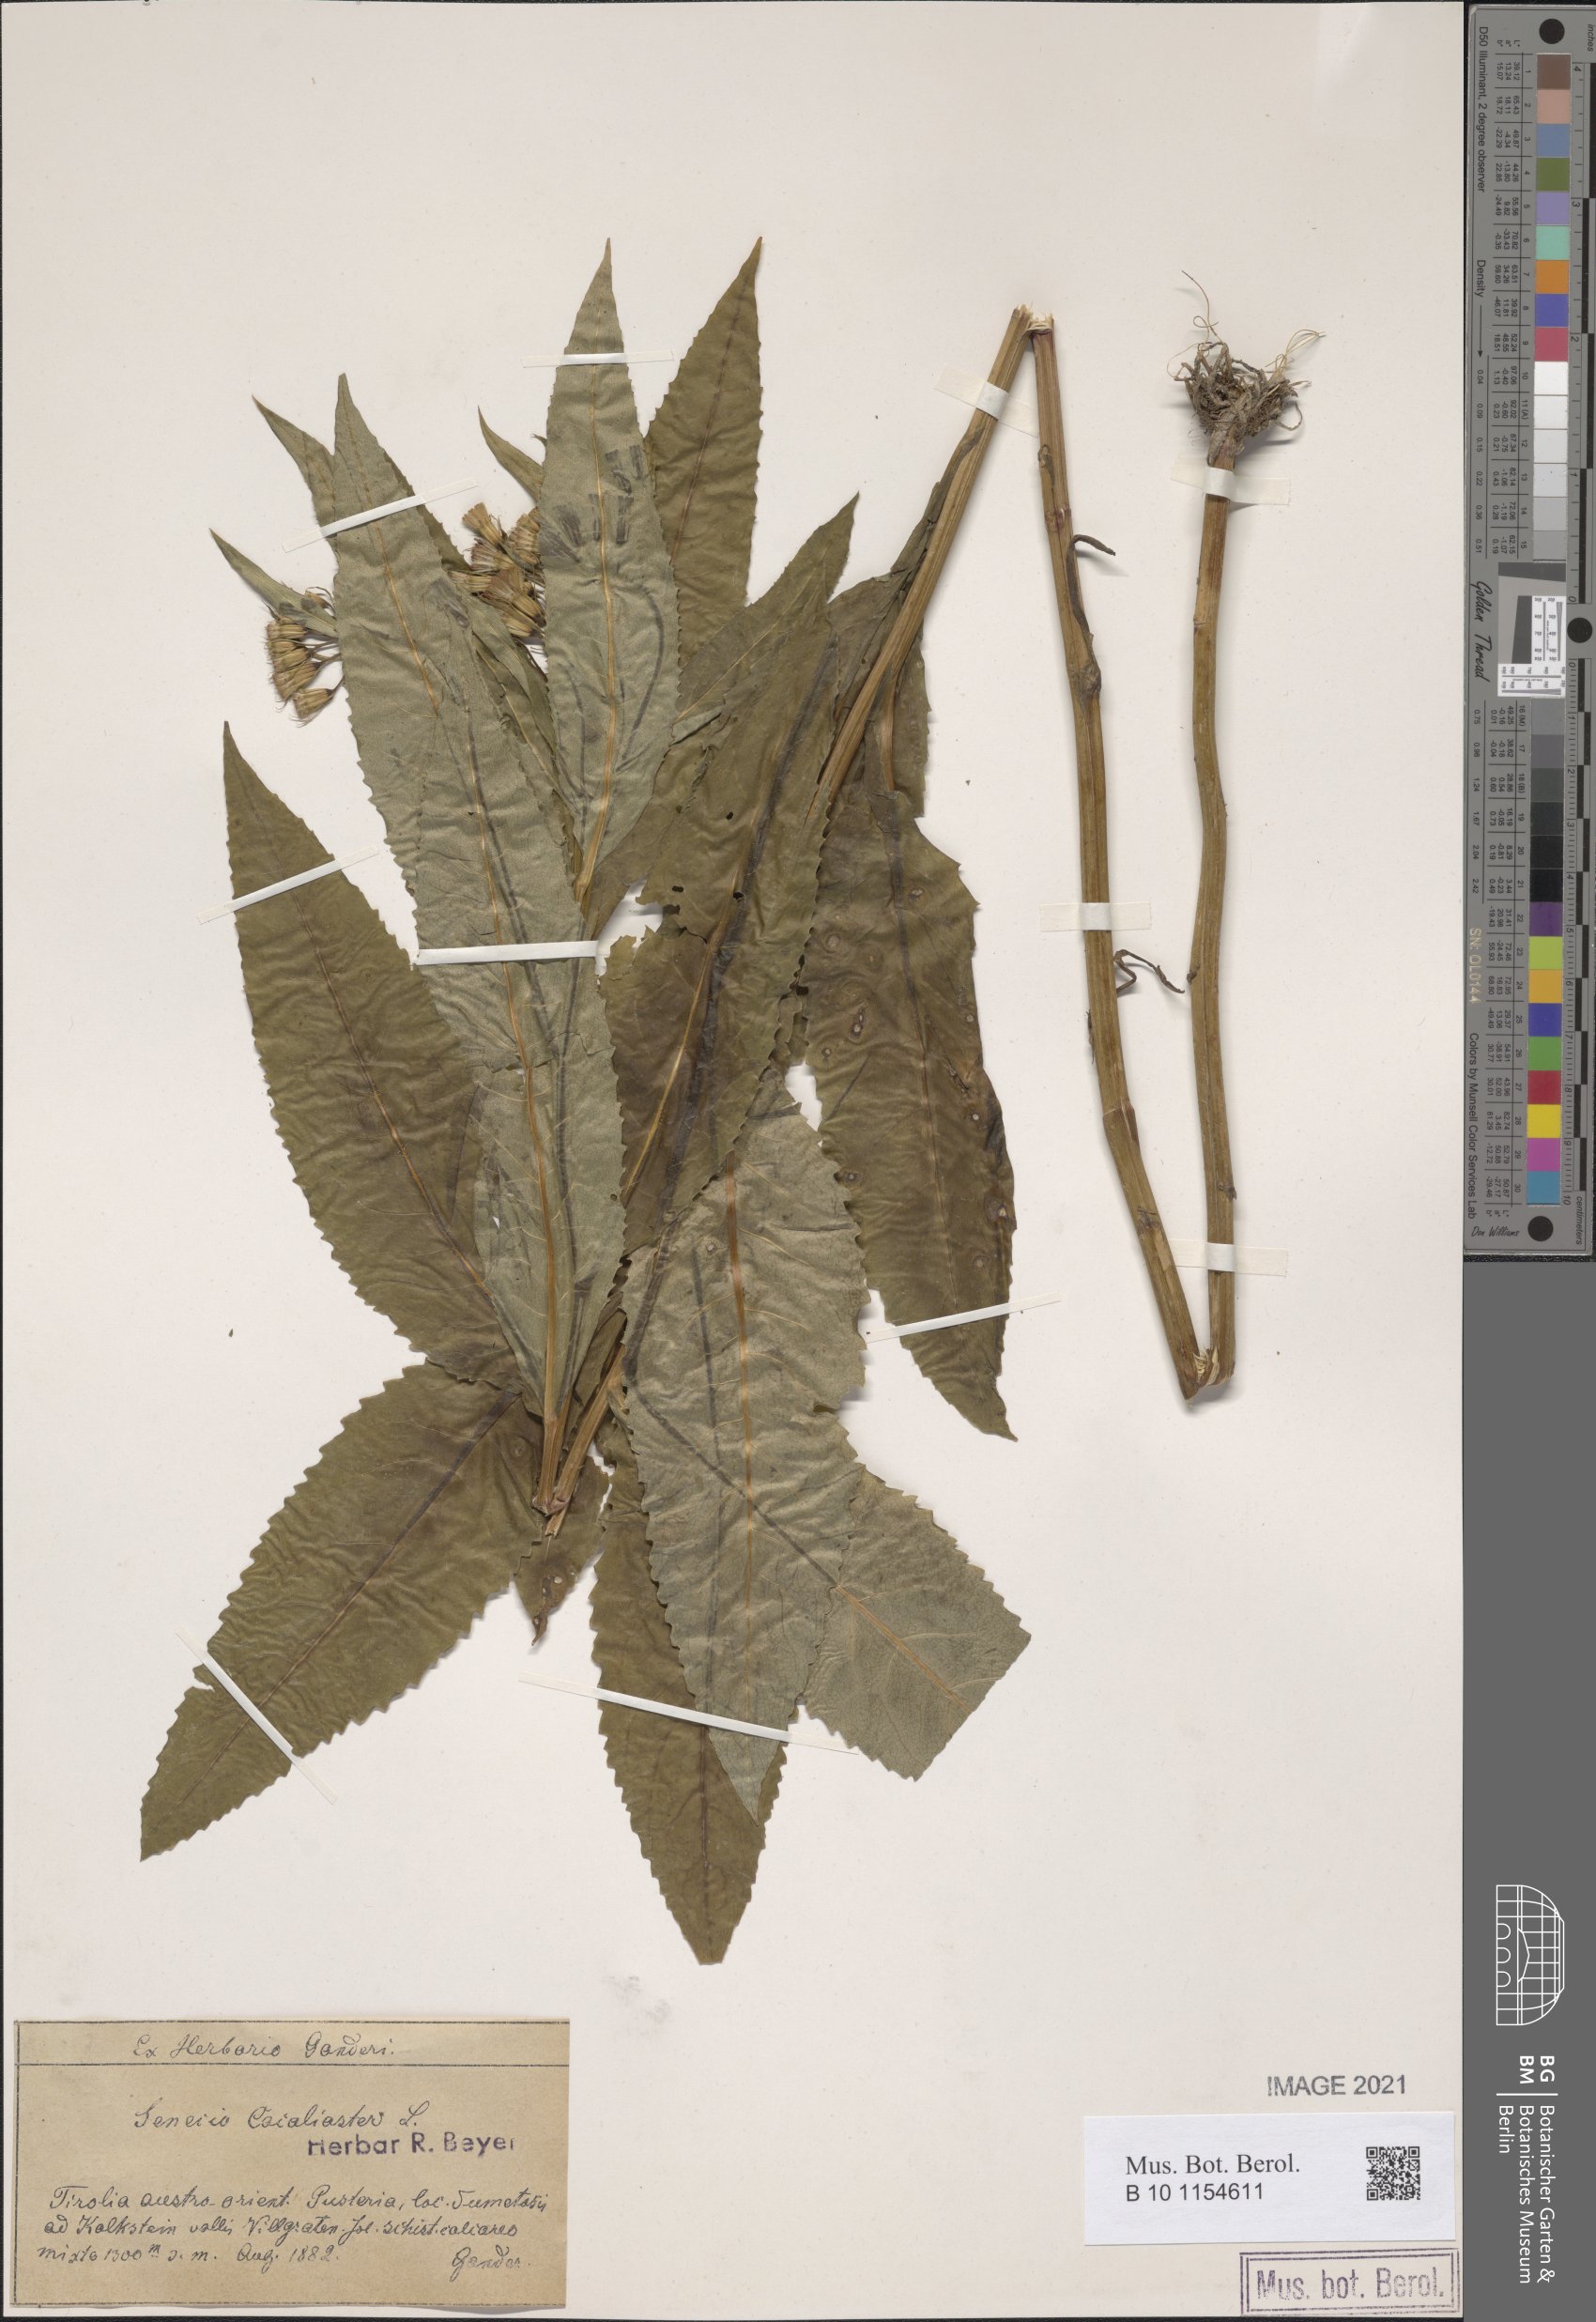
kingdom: Plantae
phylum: Tracheophyta
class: Magnoliopsida
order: Asterales
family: Asteraceae
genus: Senecio
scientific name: Senecio cacaliaster
